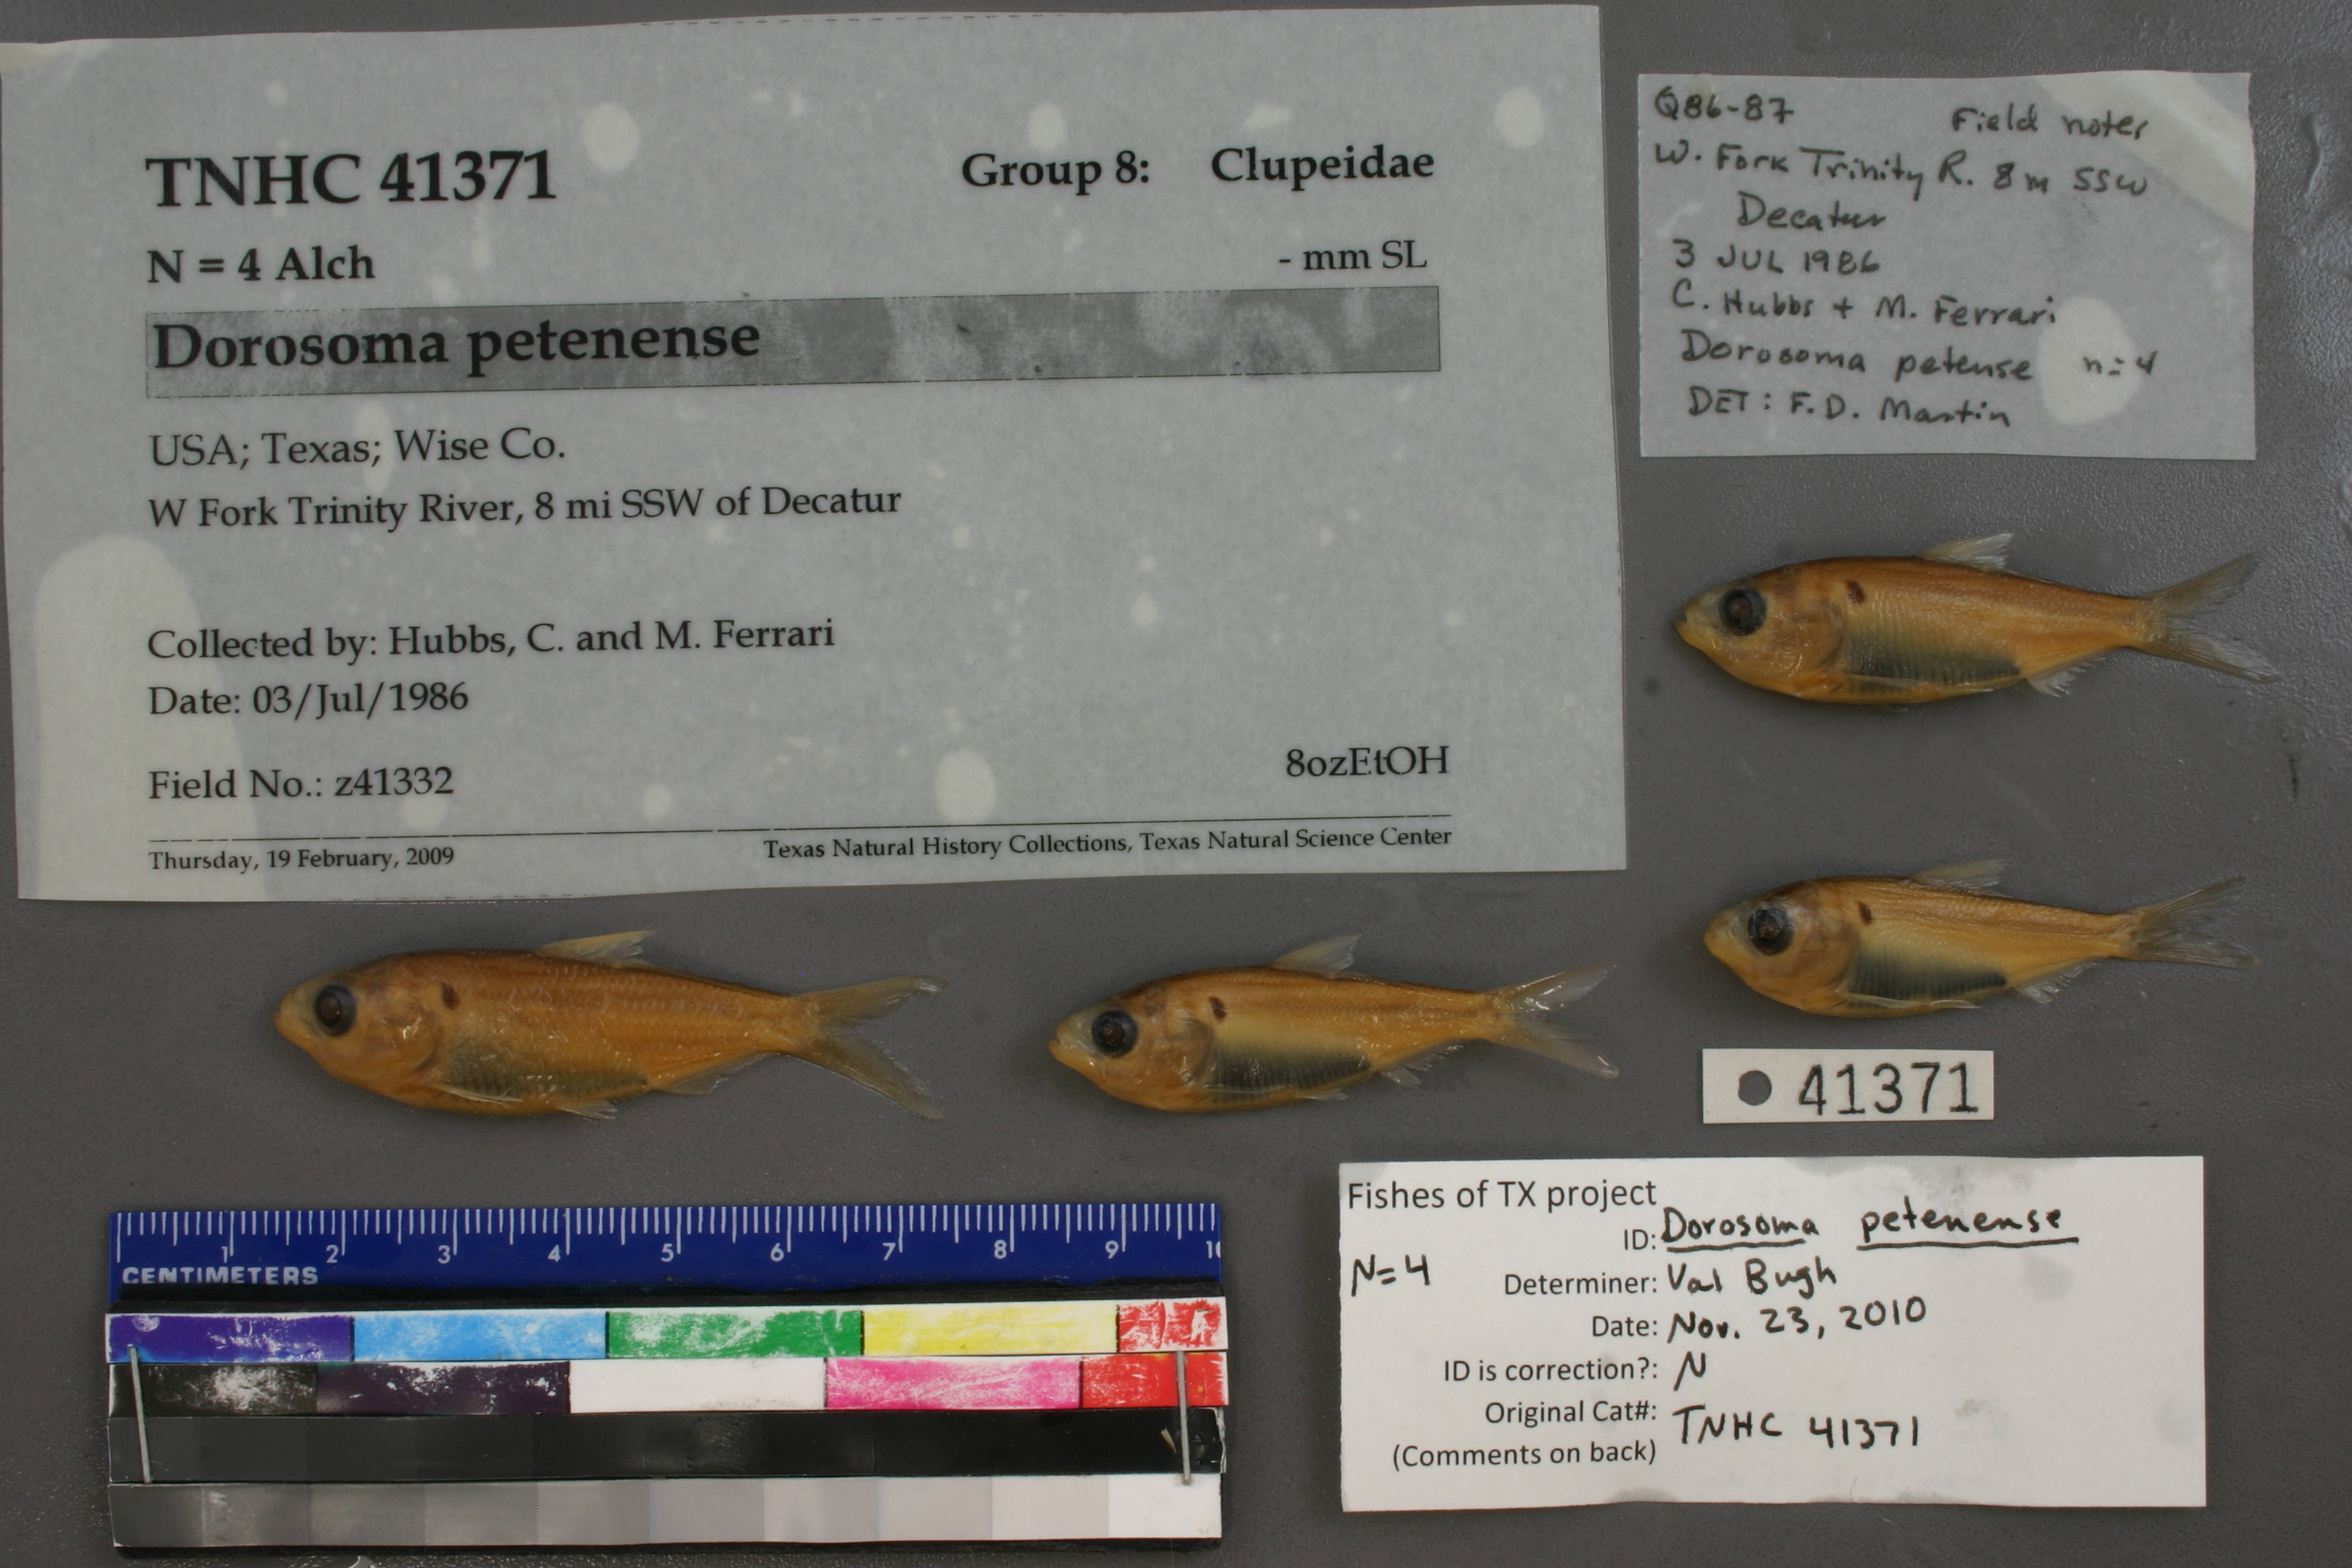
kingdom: Animalia
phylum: Chordata
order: Clupeiformes
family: Clupeidae
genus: Dorosoma
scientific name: Dorosoma petenense
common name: Threadfin shad
